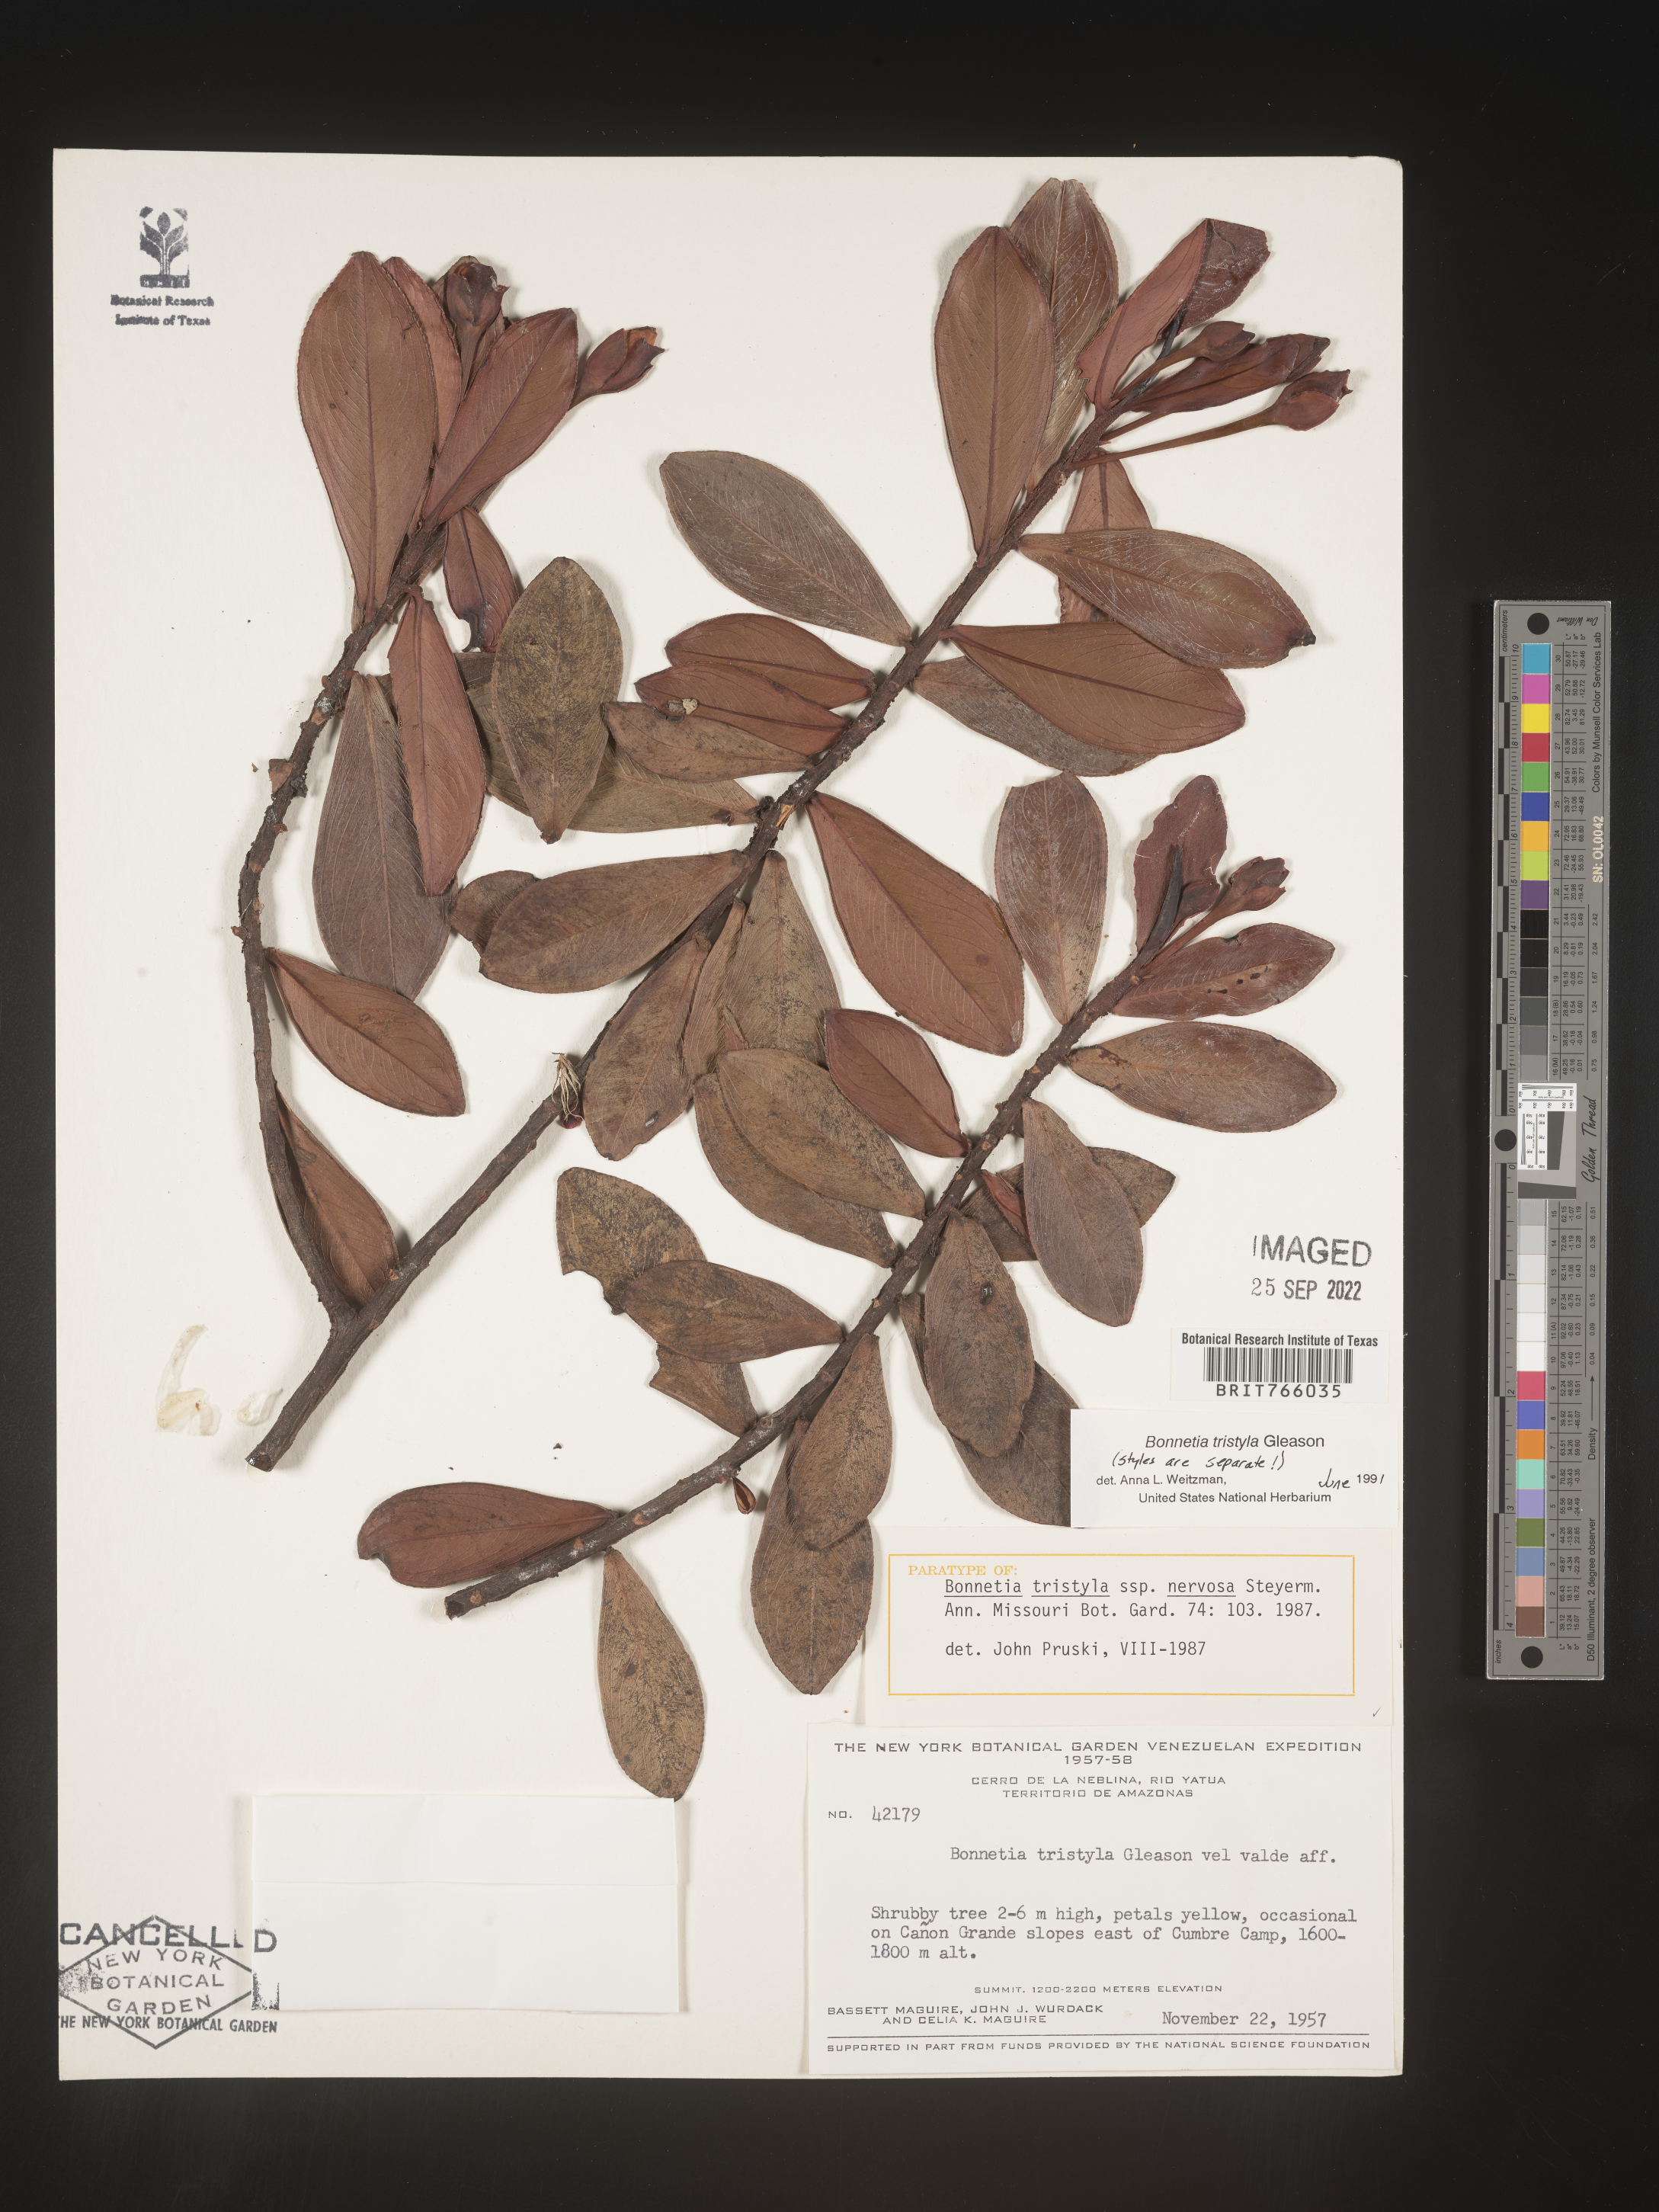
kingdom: Plantae
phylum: Tracheophyta
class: Magnoliopsida
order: Malpighiales
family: Bonnetiaceae
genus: Bonnetia
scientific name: Bonnetia
